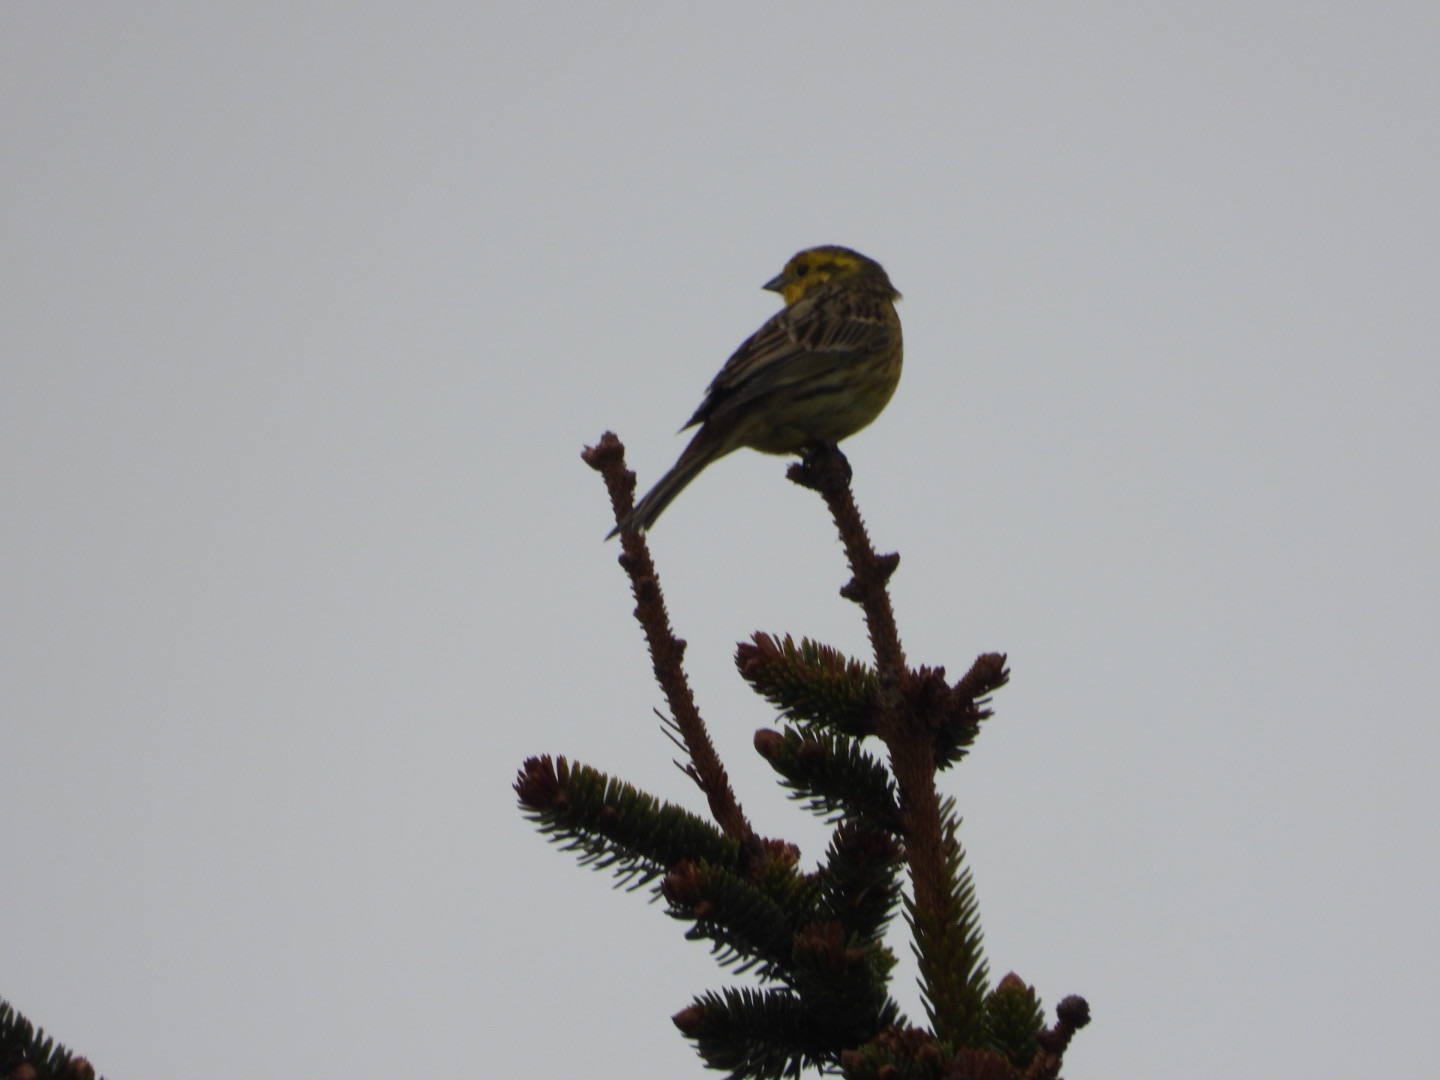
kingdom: Animalia
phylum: Chordata
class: Aves
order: Passeriformes
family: Emberizidae
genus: Emberiza
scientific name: Emberiza citrinella
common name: Gulspurv
